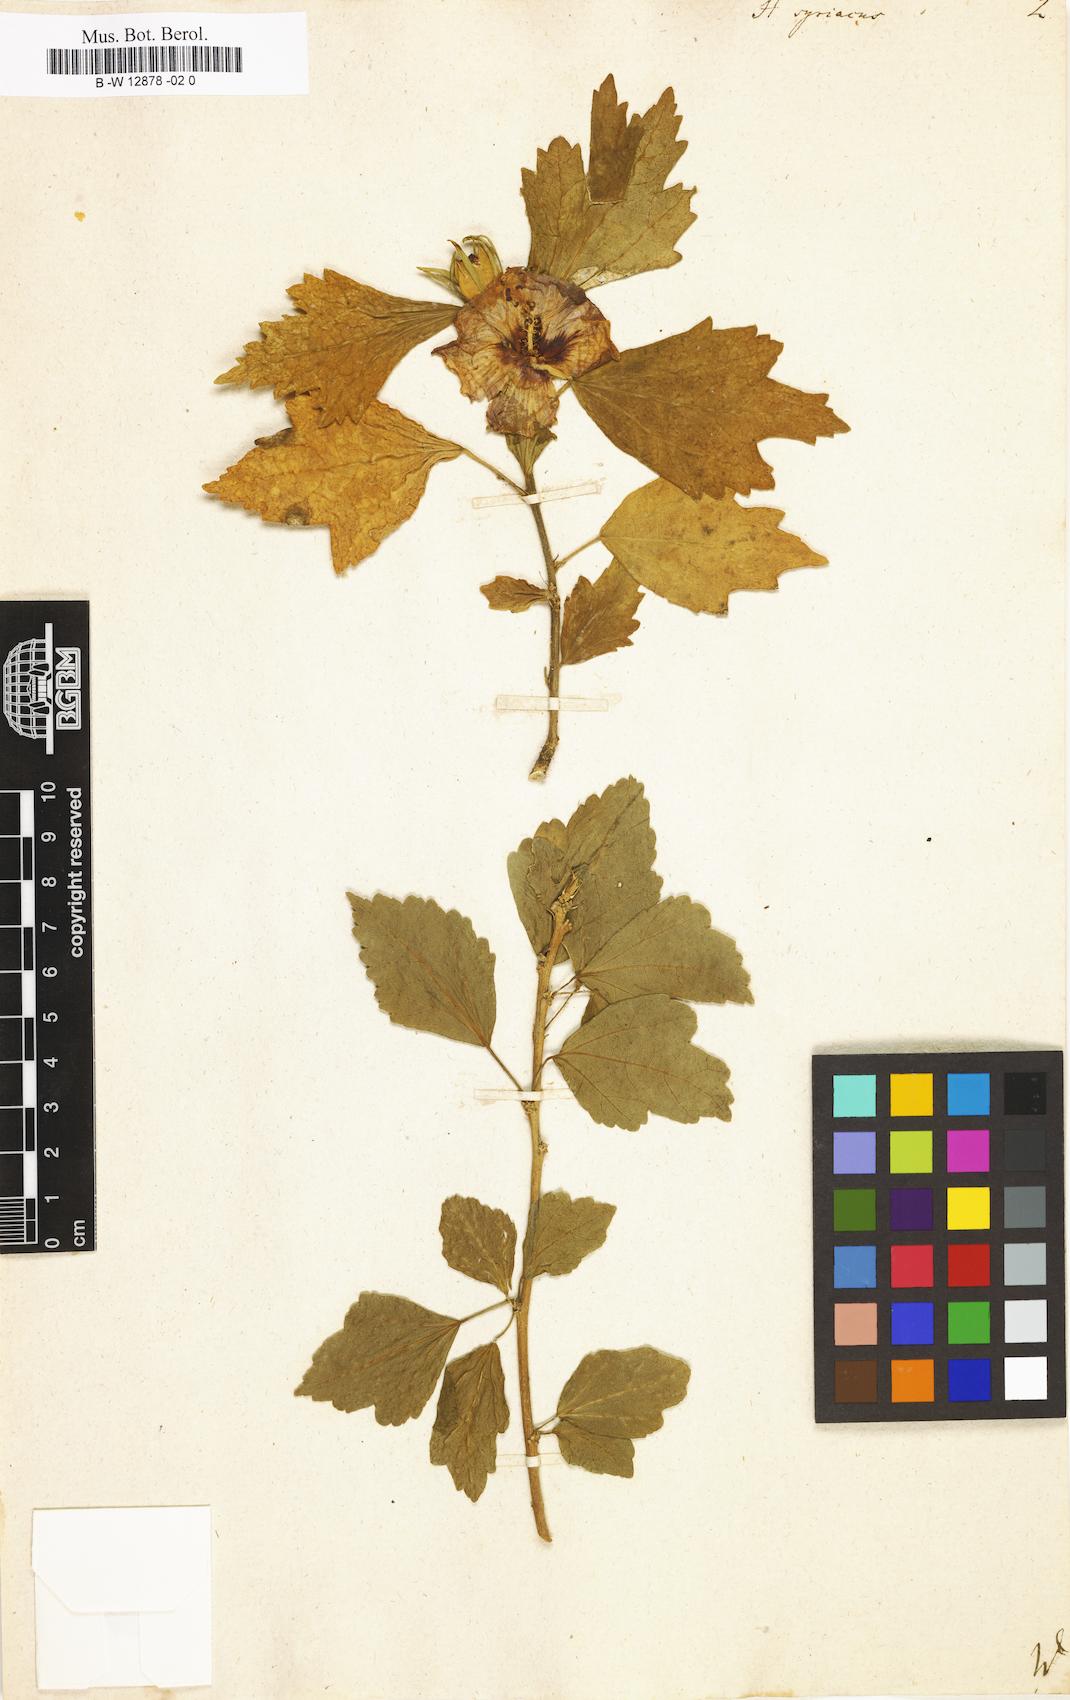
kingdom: Plantae
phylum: Tracheophyta
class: Magnoliopsida
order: Malvales
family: Malvaceae
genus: Hibiscus
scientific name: Hibiscus syriacus
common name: Syrian ketmia
